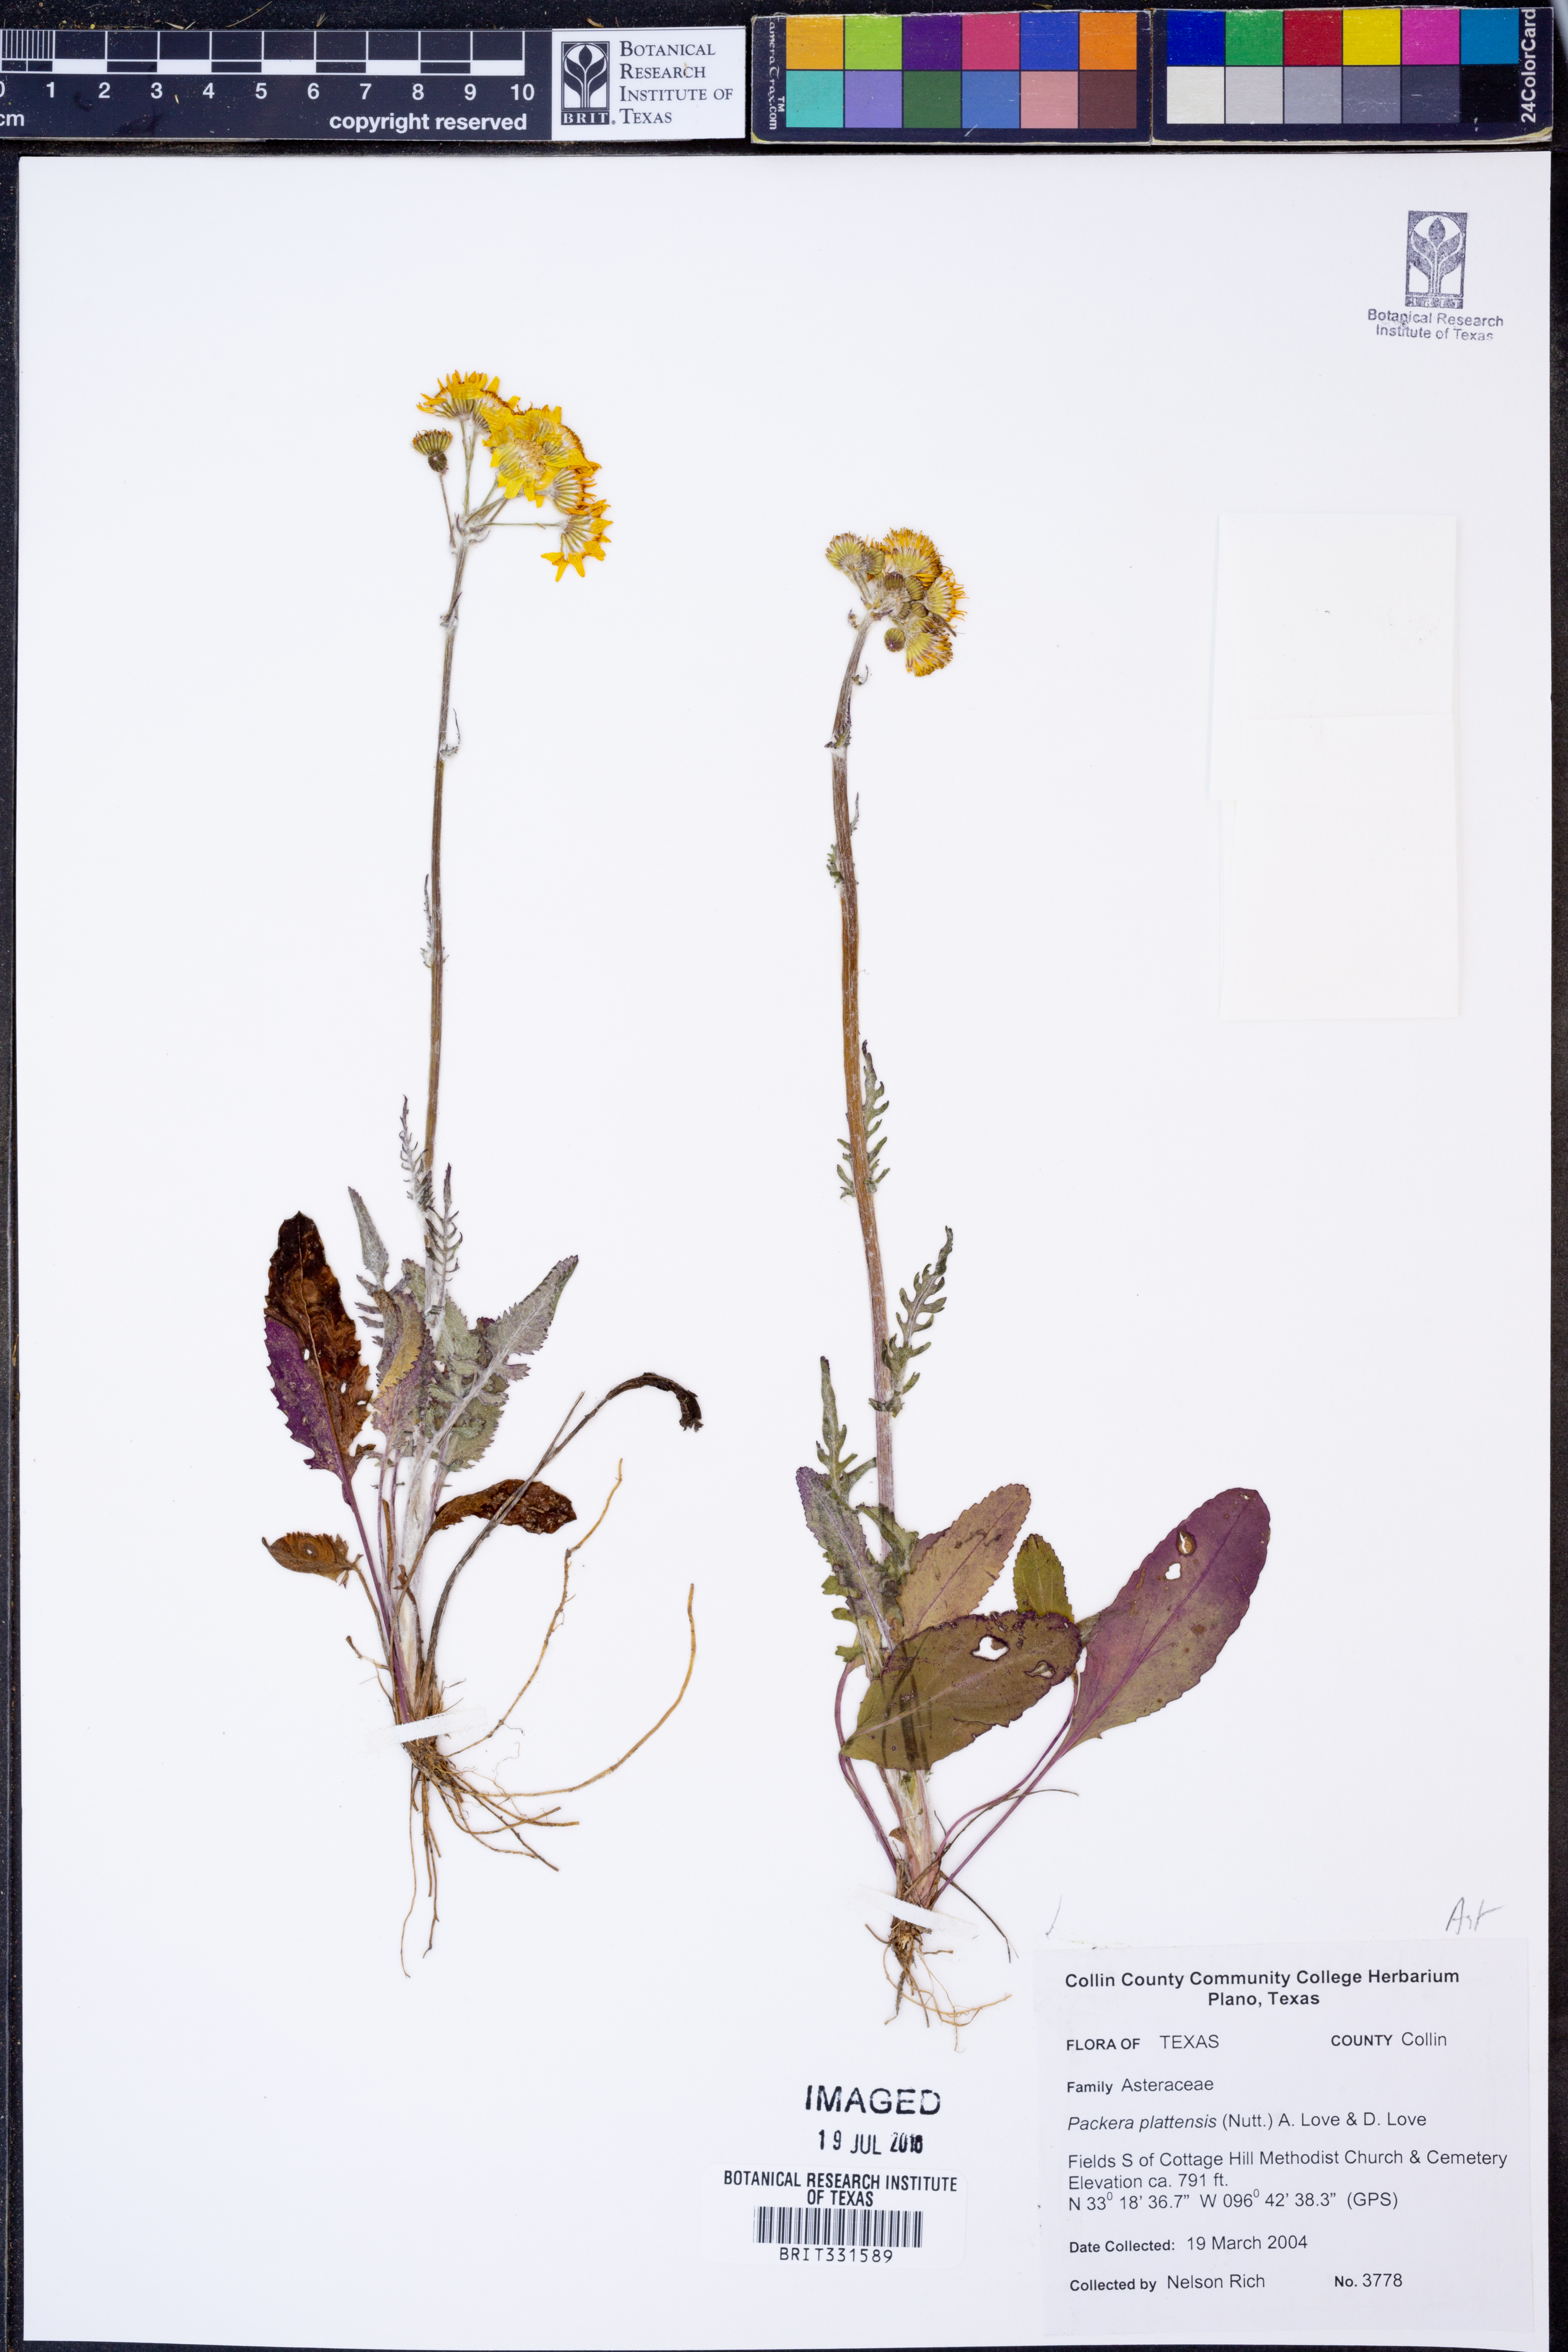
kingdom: Plantae
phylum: Tracheophyta
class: Magnoliopsida
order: Asterales
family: Asteraceae
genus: Packera
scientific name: Packera plattensis
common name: Prairie groundsel
